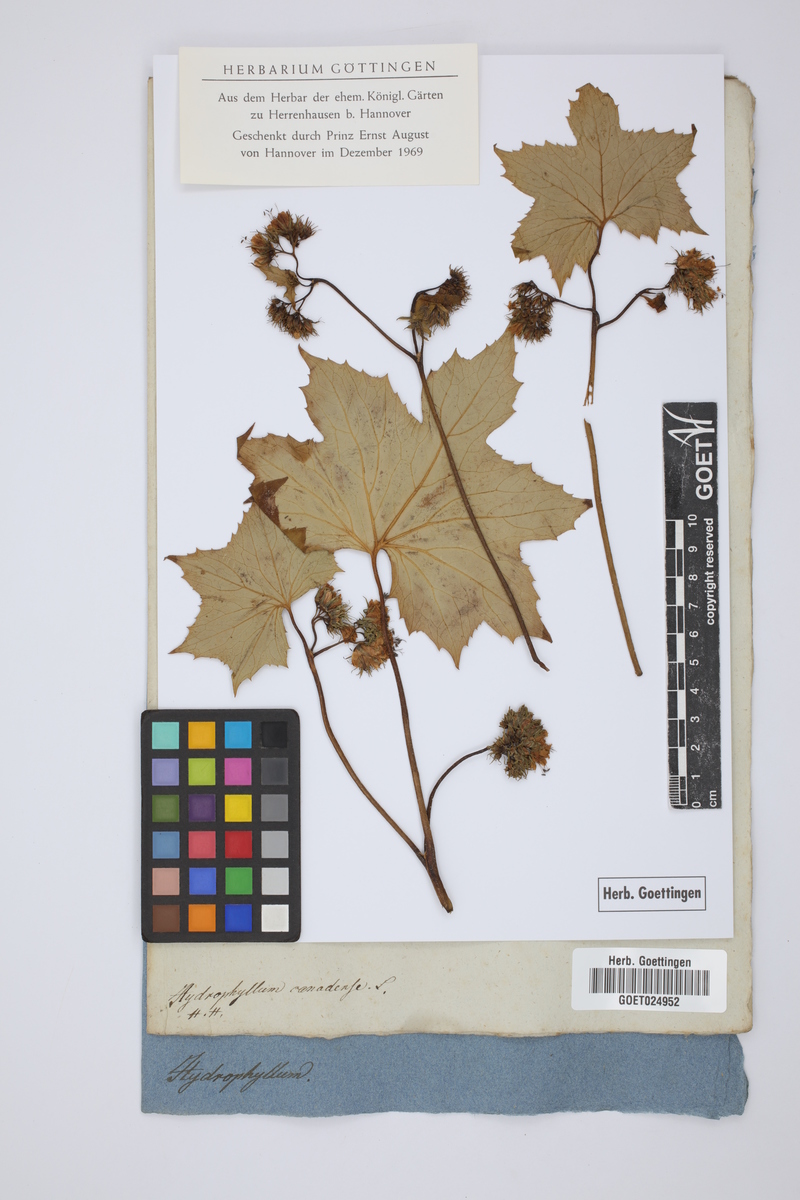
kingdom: Plantae
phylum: Tracheophyta
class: Magnoliopsida
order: Boraginales
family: Hydrophyllaceae
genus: Hydrophyllum
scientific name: Hydrophyllum canadense
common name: Canada waterleaf
